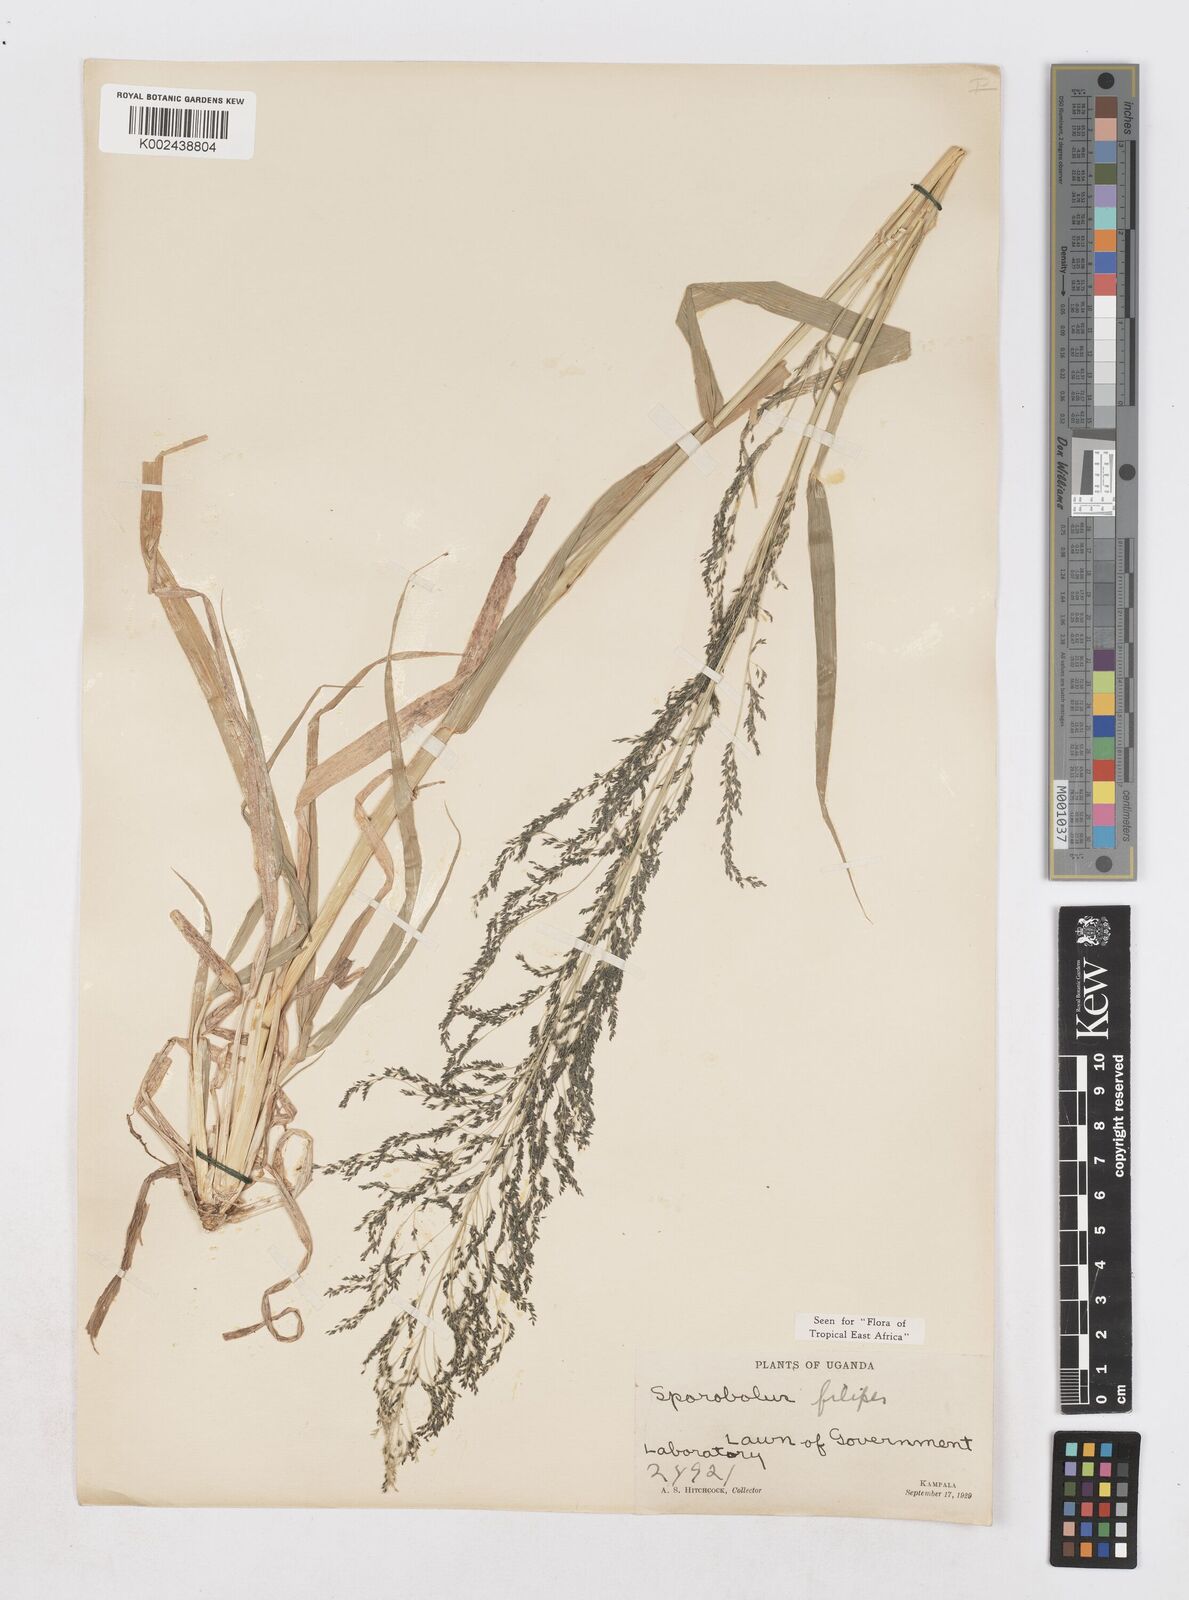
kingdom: Plantae
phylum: Tracheophyta
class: Liliopsida
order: Poales
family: Poaceae
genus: Sporobolus
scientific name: Sporobolus agrostoides
